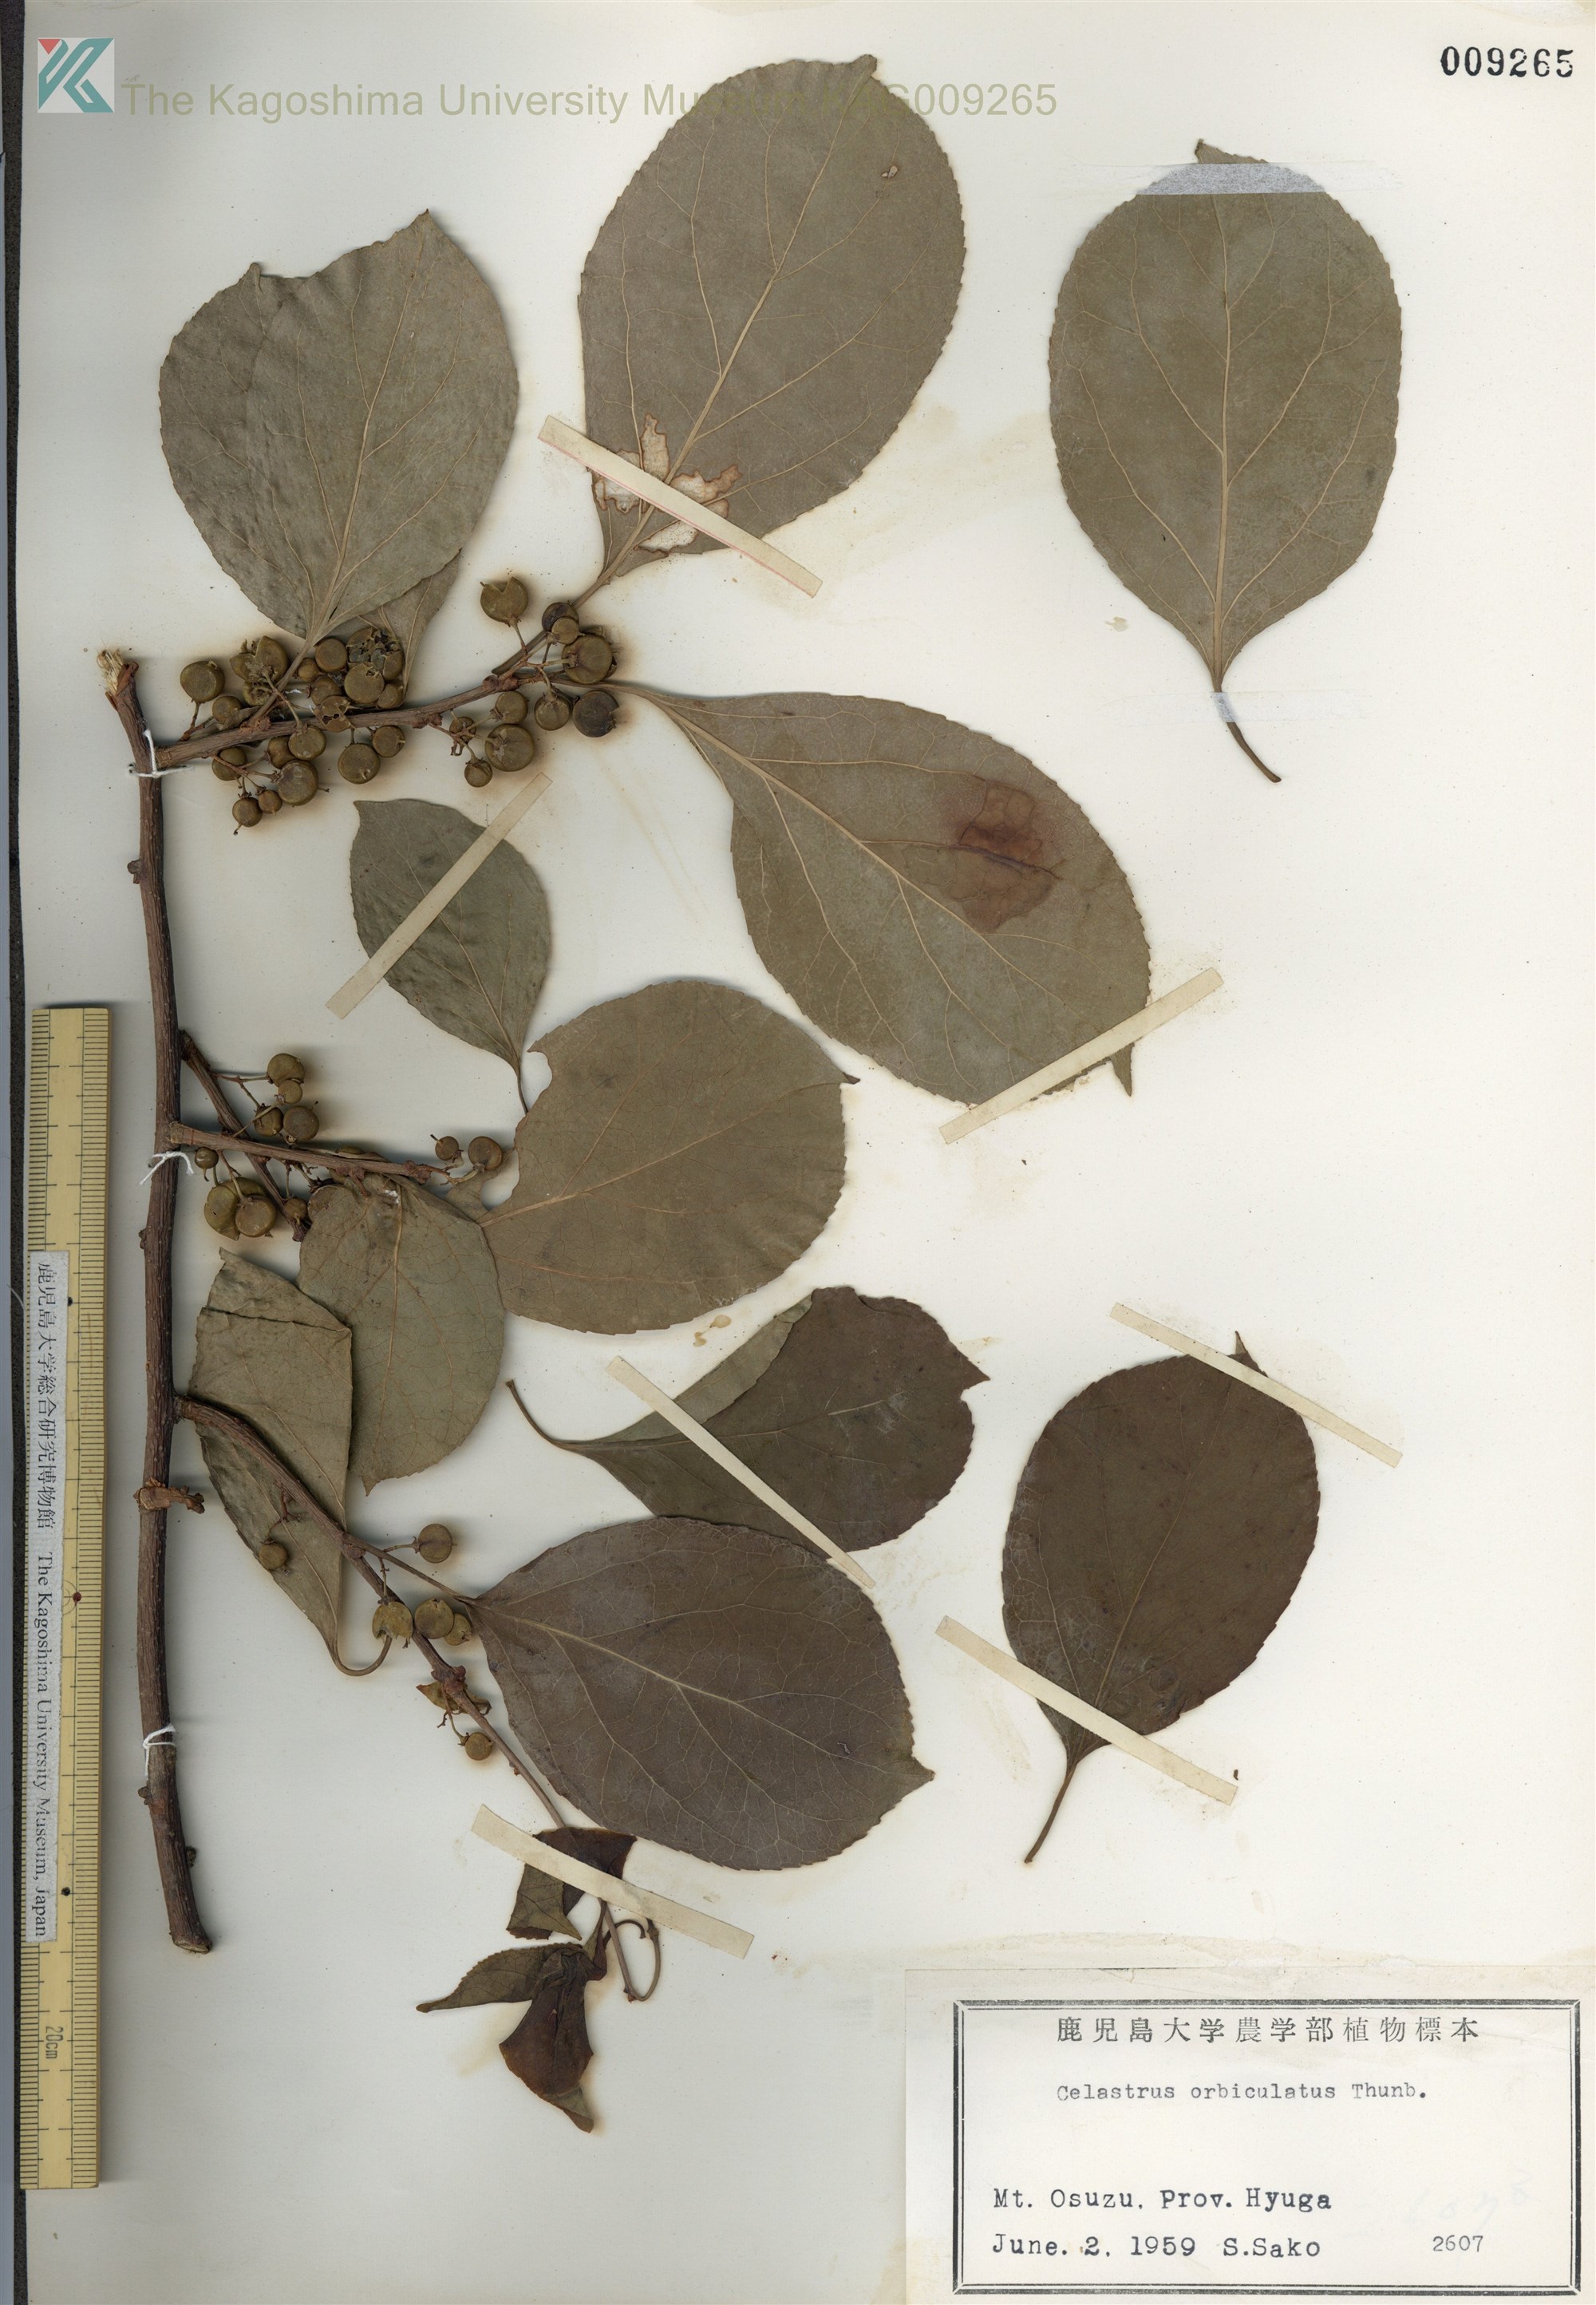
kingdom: Plantae
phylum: Tracheophyta
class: Magnoliopsida
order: Celastrales
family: Celastraceae
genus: Celastrus
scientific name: Celastrus orbiculatus
